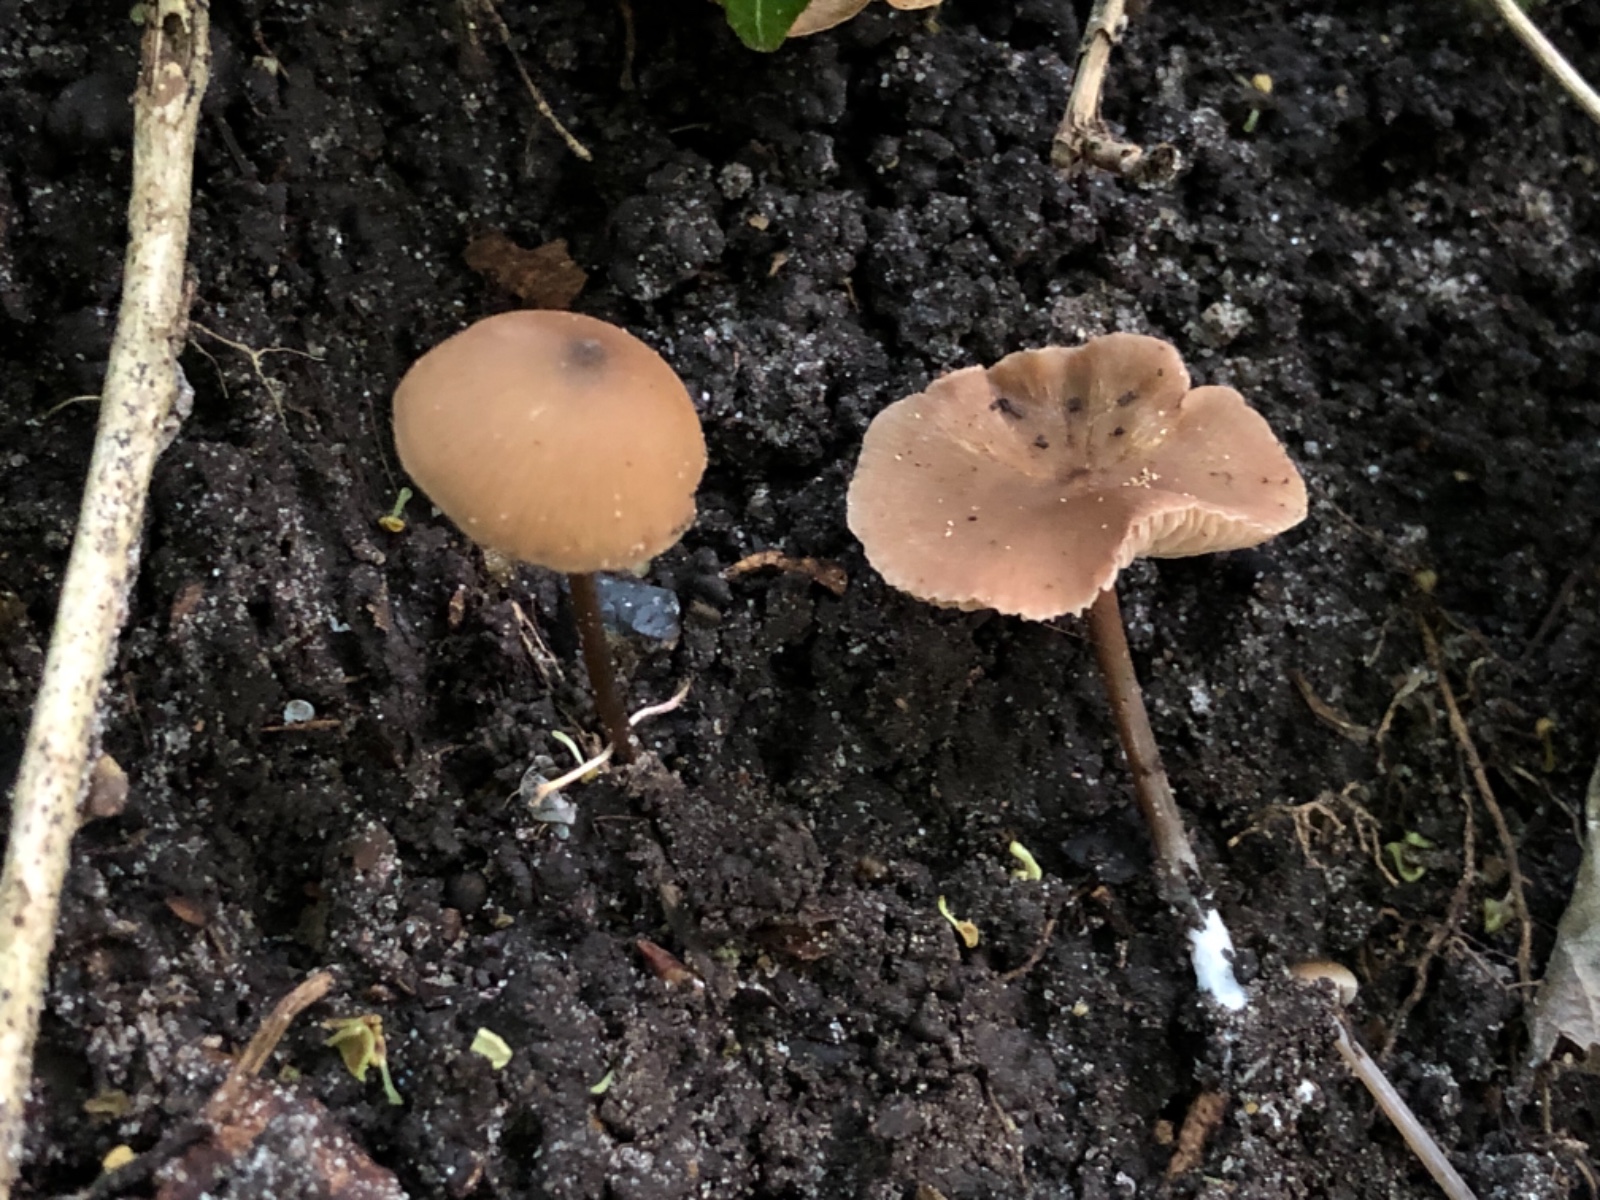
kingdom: Fungi
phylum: Basidiomycota
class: Agaricomycetes
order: Agaricales
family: Entolomataceae
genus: Entoloma
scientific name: Entoloma hebes
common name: Pimple pinkgill
